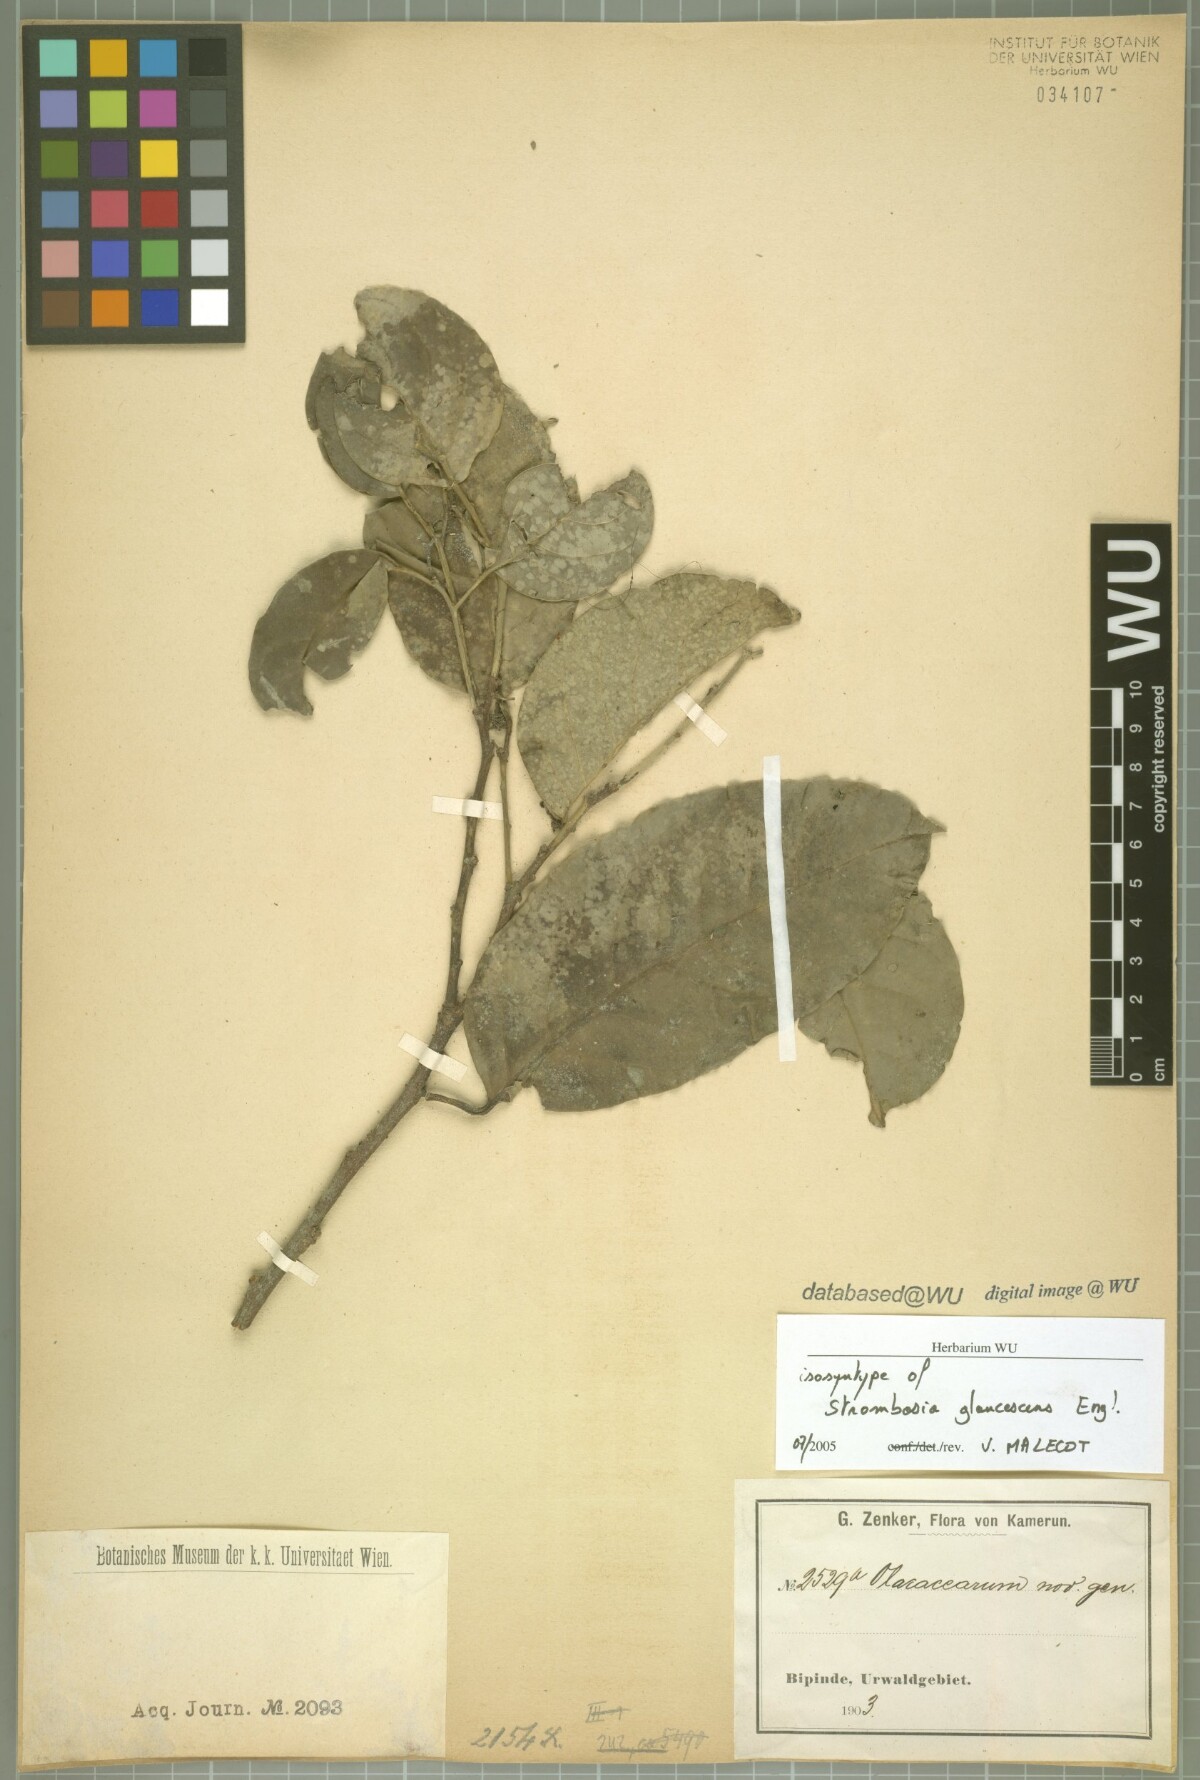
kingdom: Plantae
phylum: Tracheophyta
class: Magnoliopsida
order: Santalales
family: Strombosiaceae
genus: Strombosia
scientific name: Strombosia pustulata
